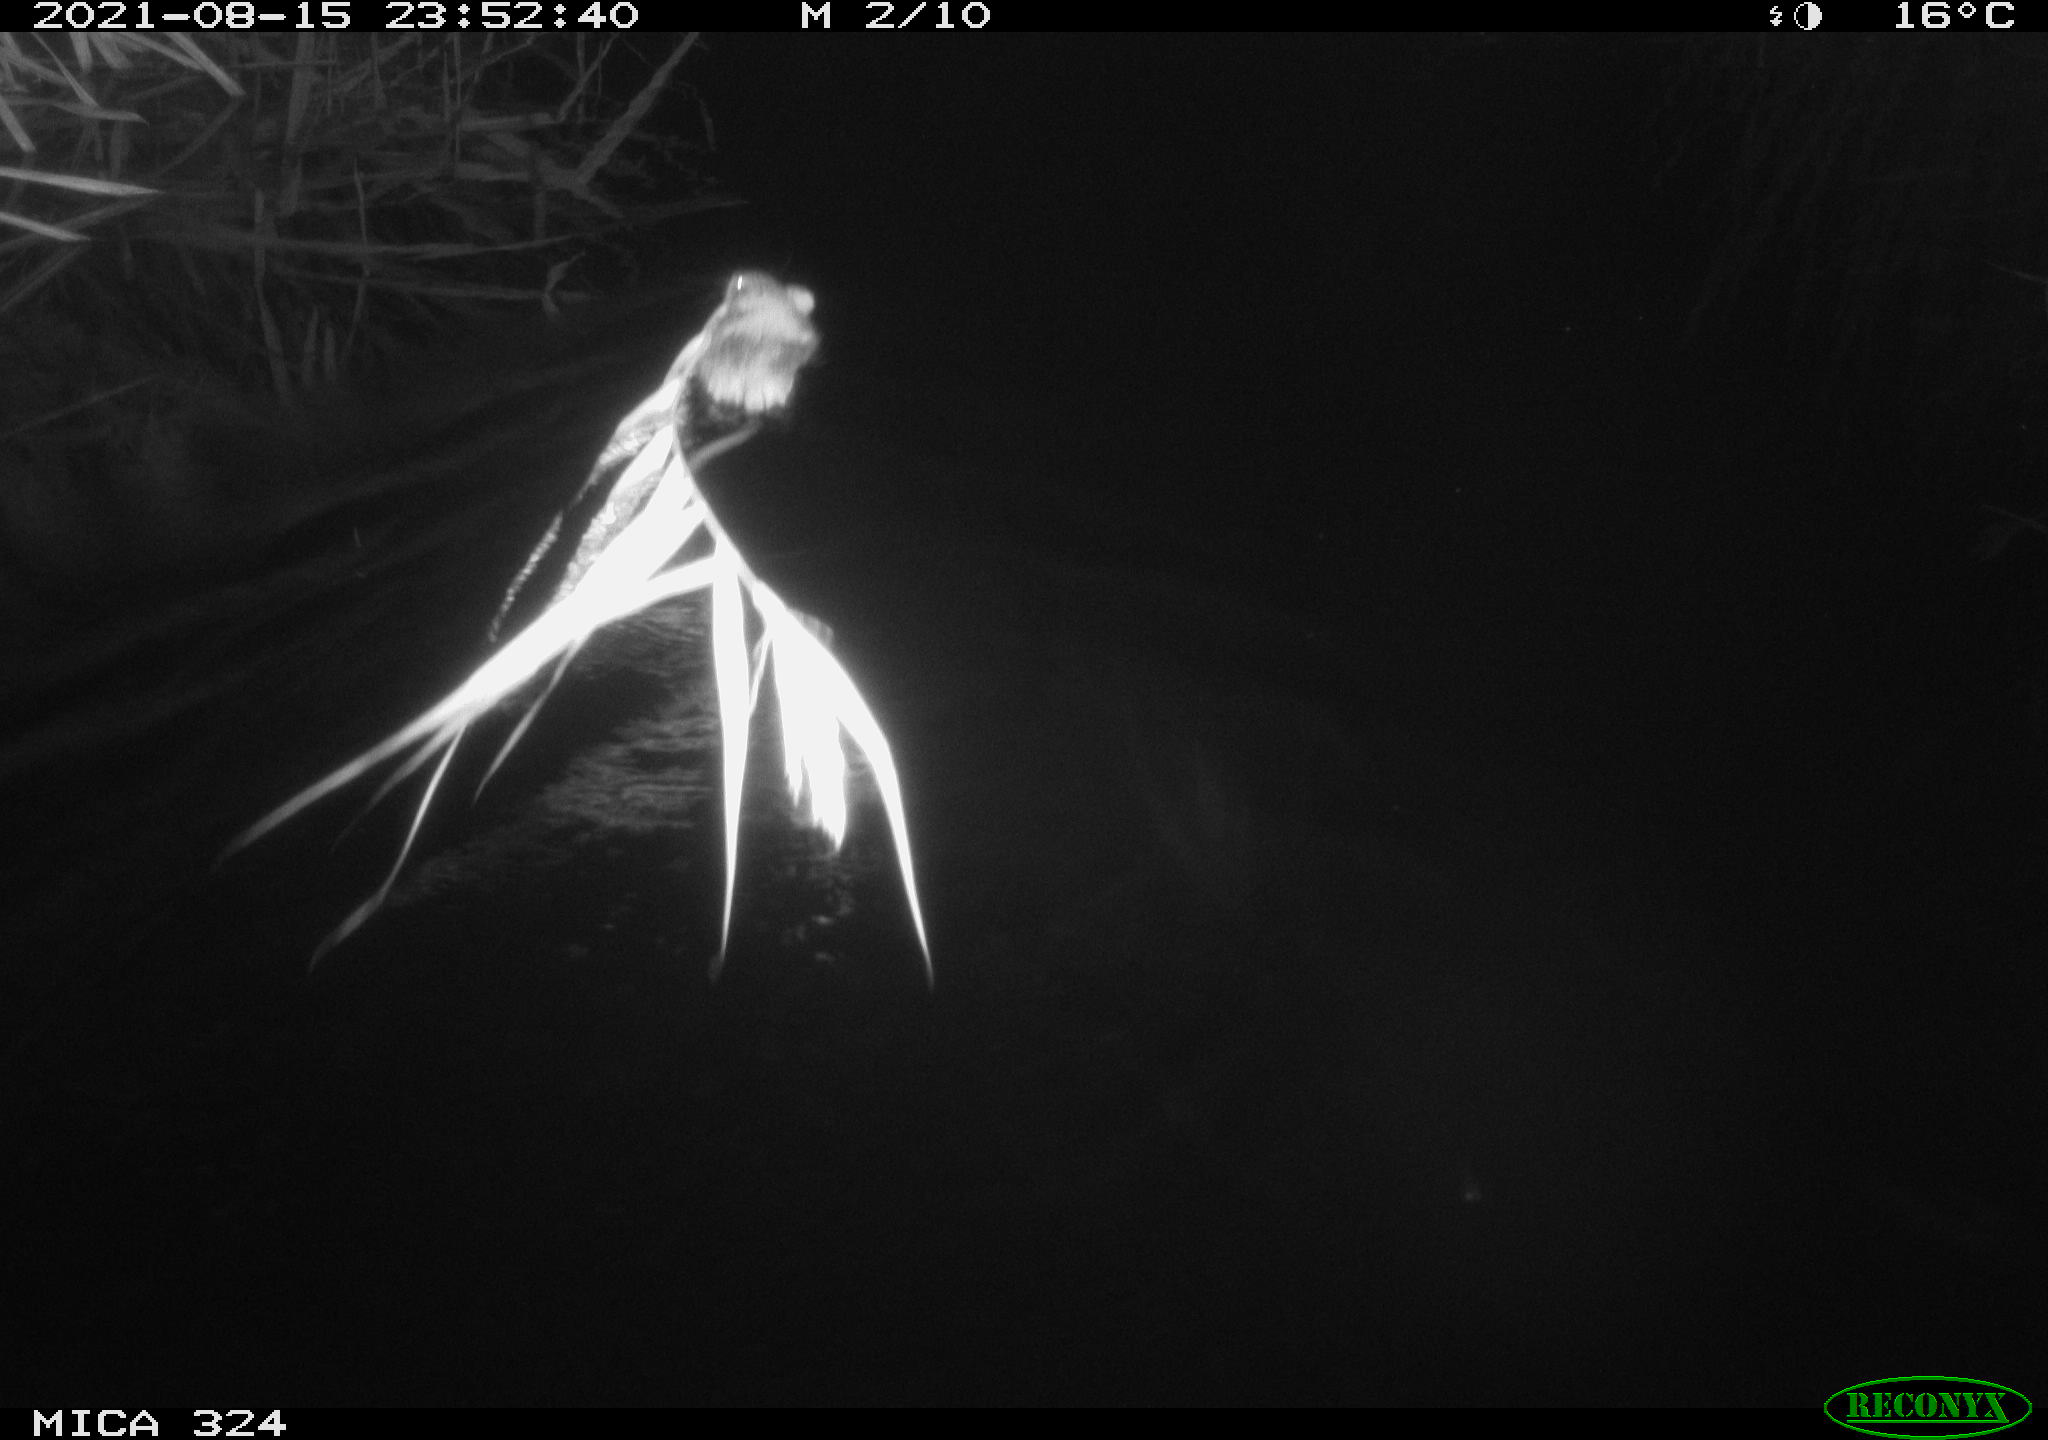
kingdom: Animalia
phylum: Chordata
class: Mammalia
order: Rodentia
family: Cricetidae
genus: Ondatra
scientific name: Ondatra zibethicus
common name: Muskrat
